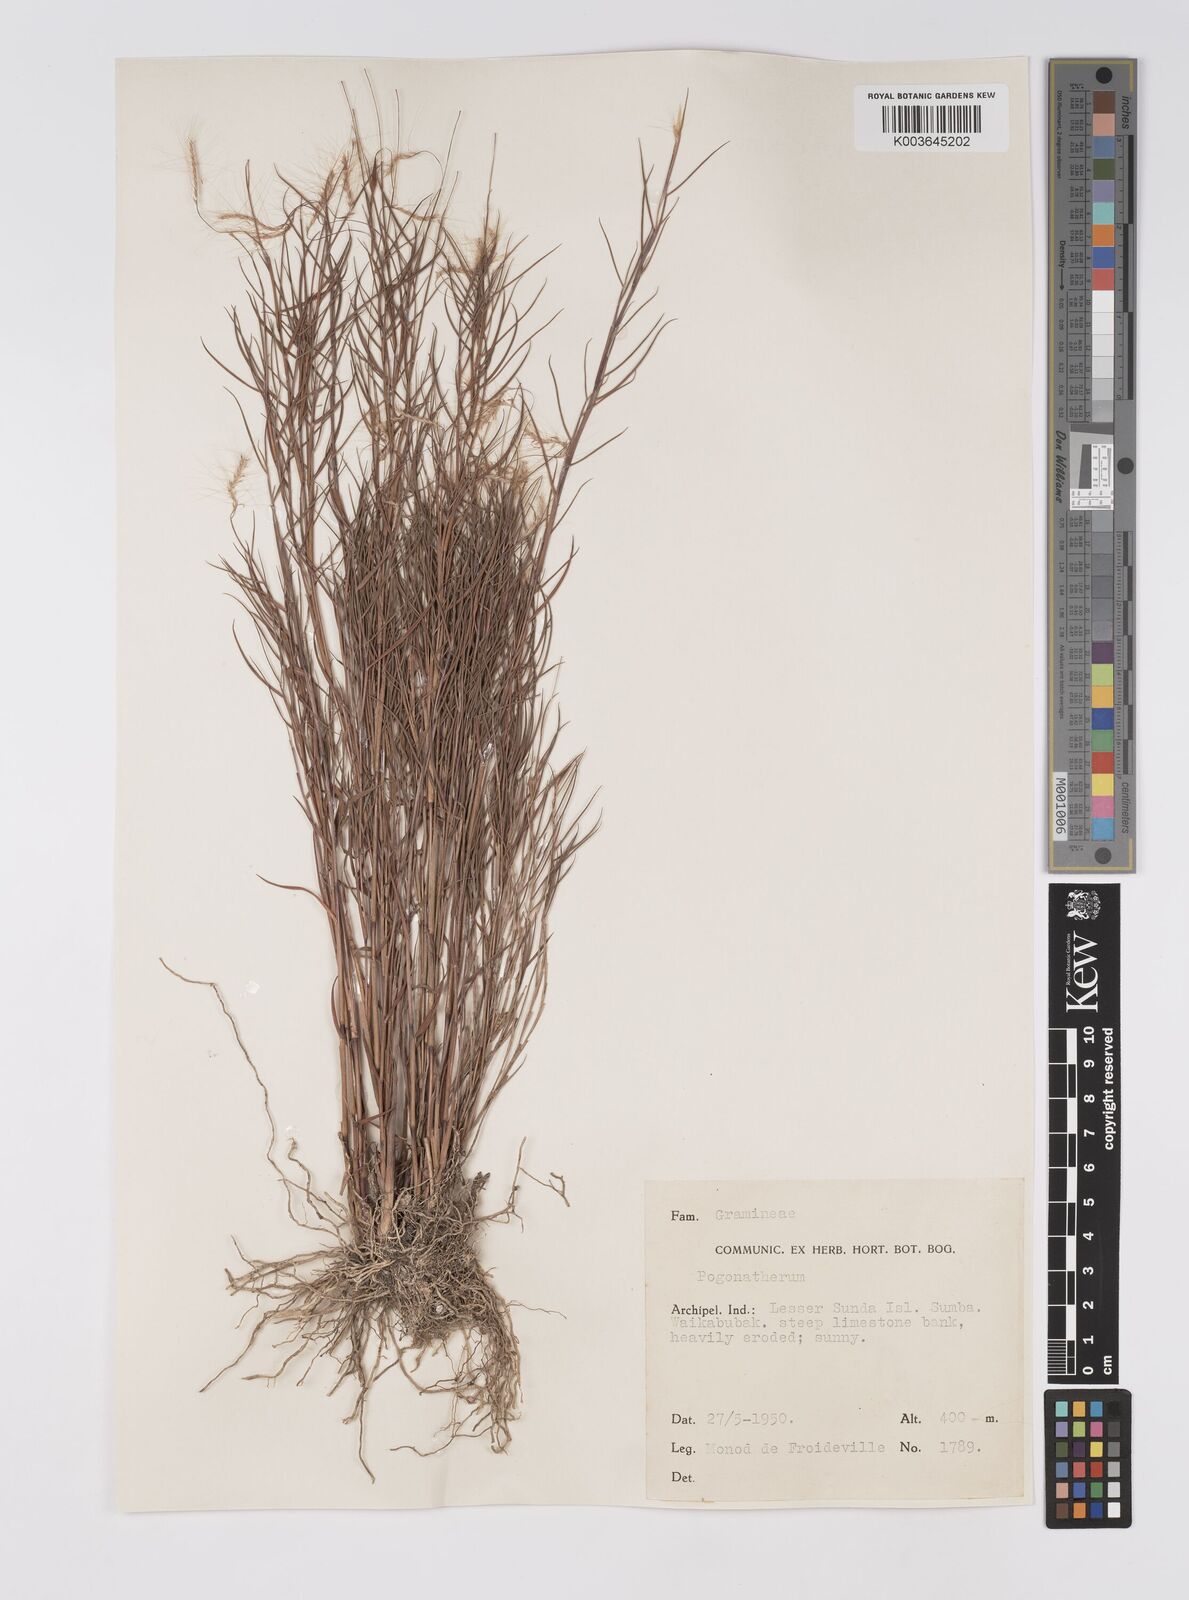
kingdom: Plantae
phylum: Tracheophyta
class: Liliopsida
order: Poales
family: Poaceae
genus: Pogonatherum
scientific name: Pogonatherum paniceum
